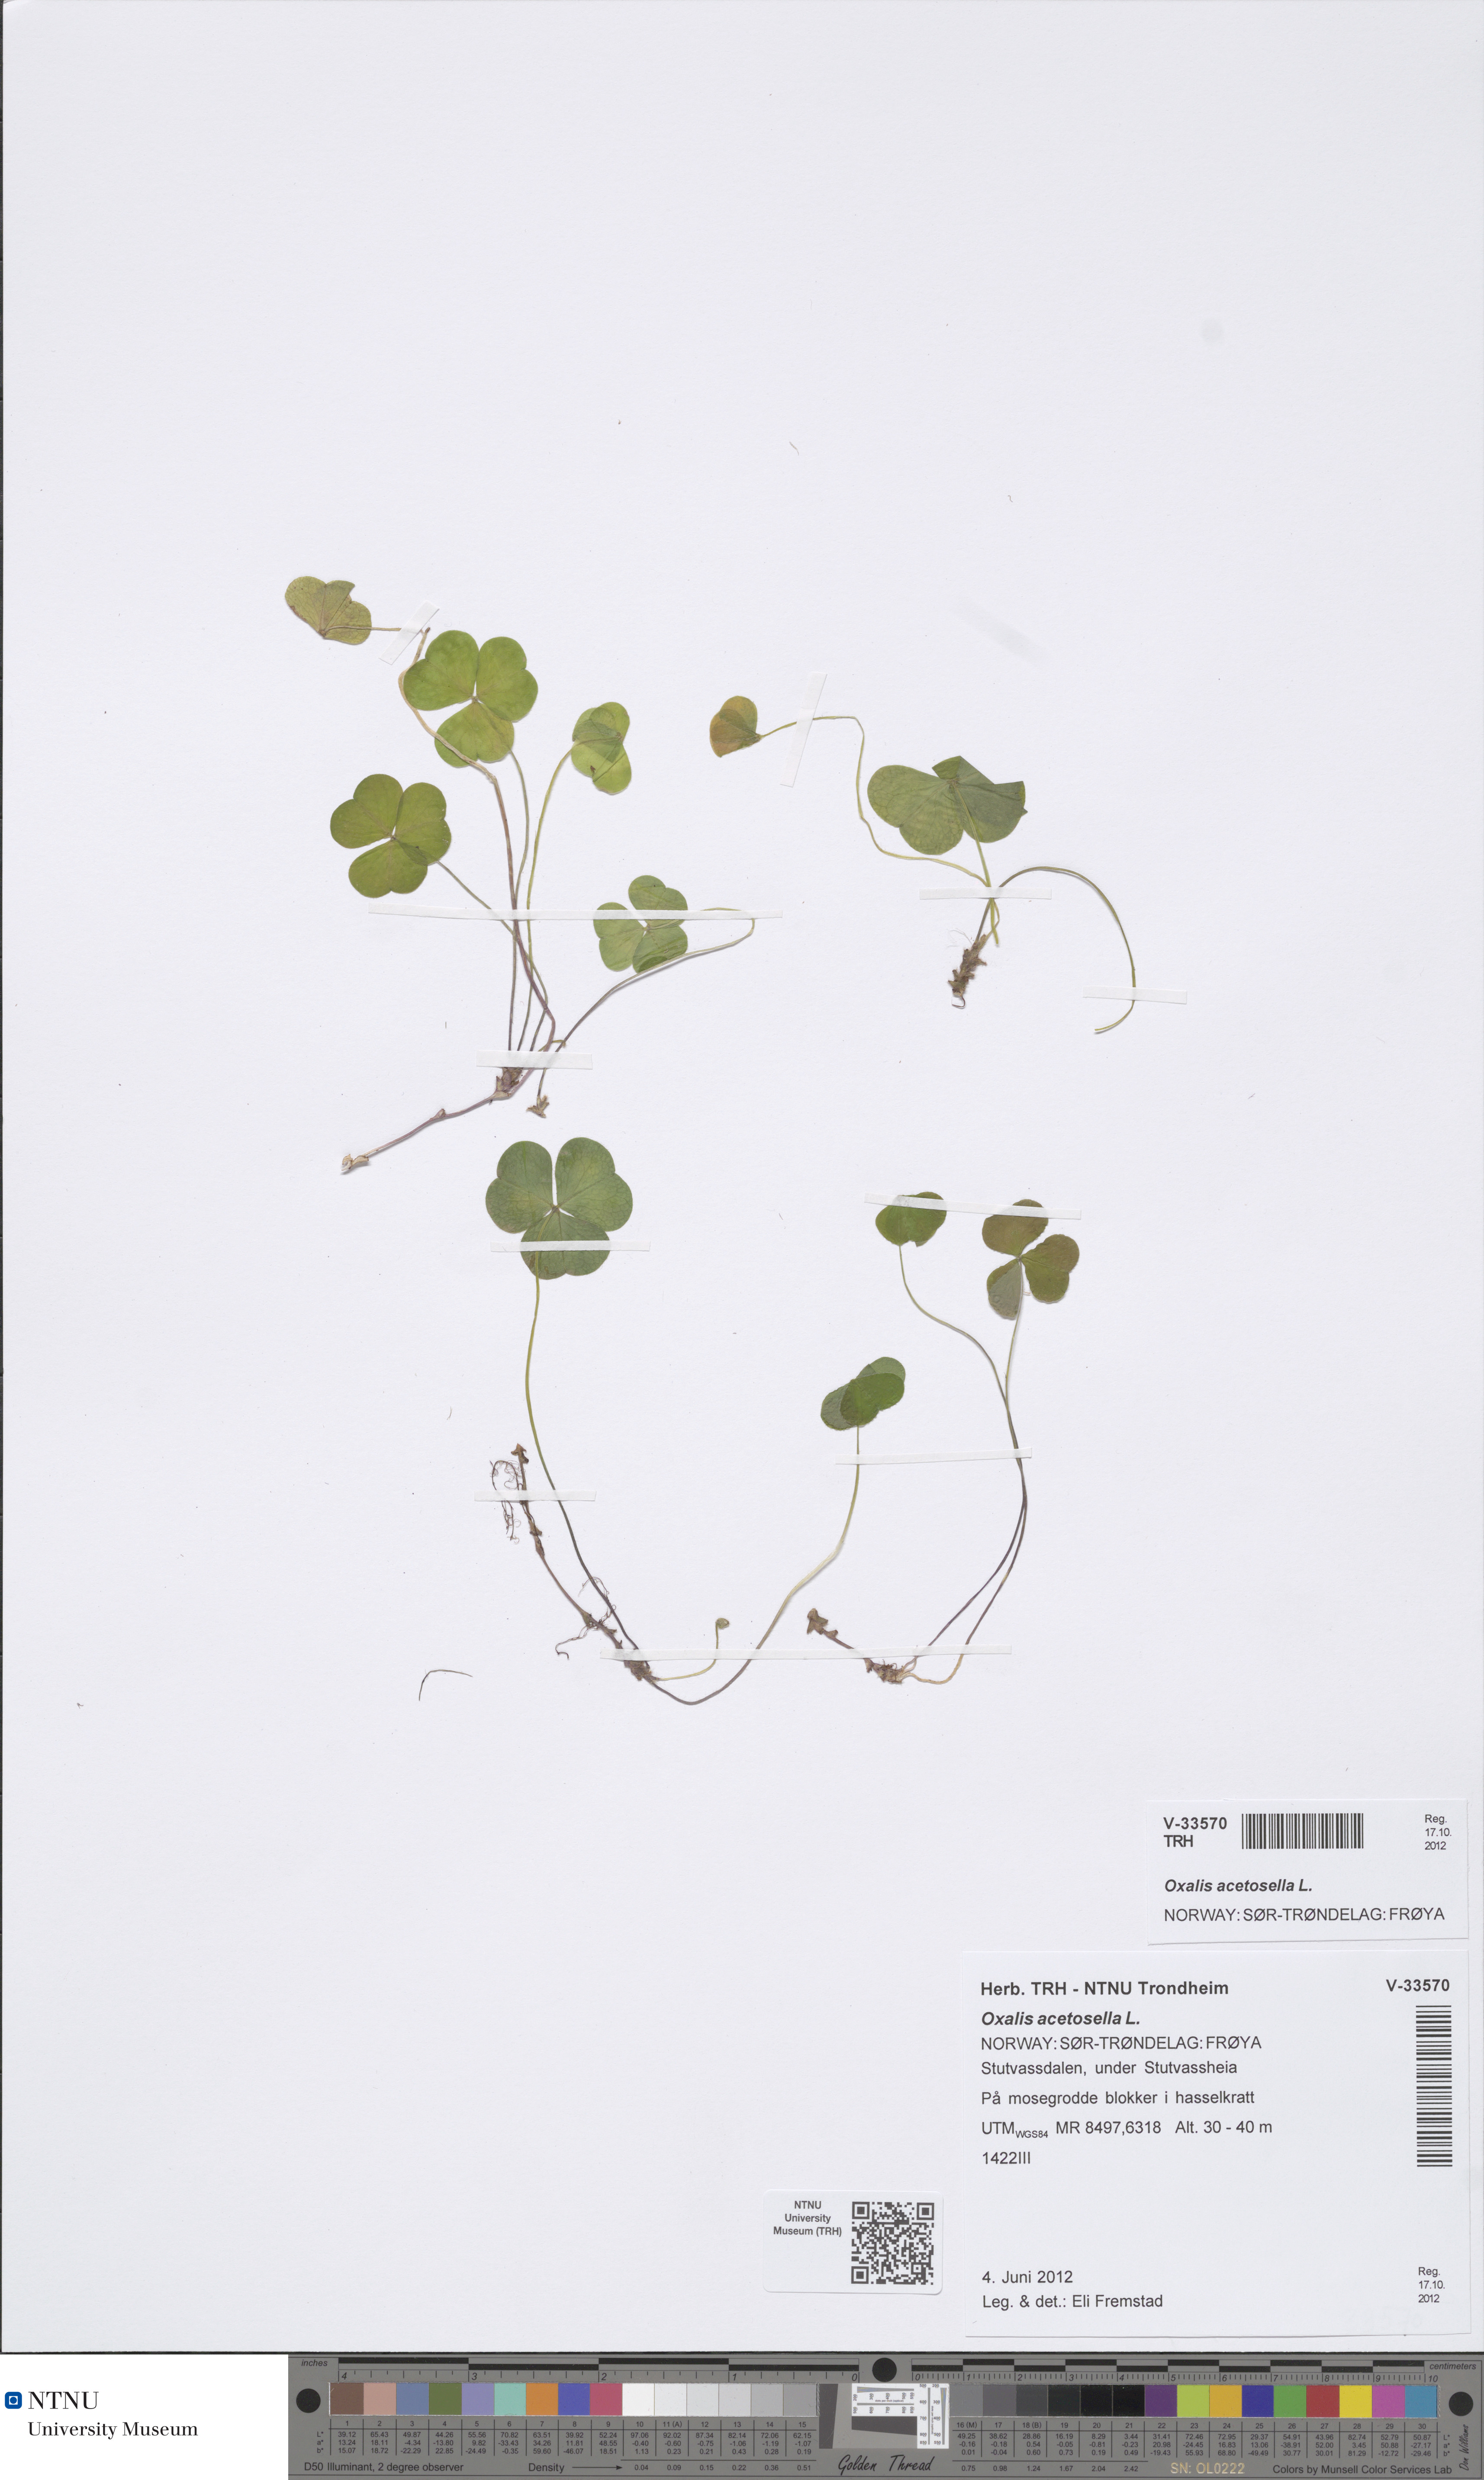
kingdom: Plantae
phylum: Tracheophyta
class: Magnoliopsida
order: Oxalidales
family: Oxalidaceae
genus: Oxalis
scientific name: Oxalis acetosella
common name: Wood-sorrel
